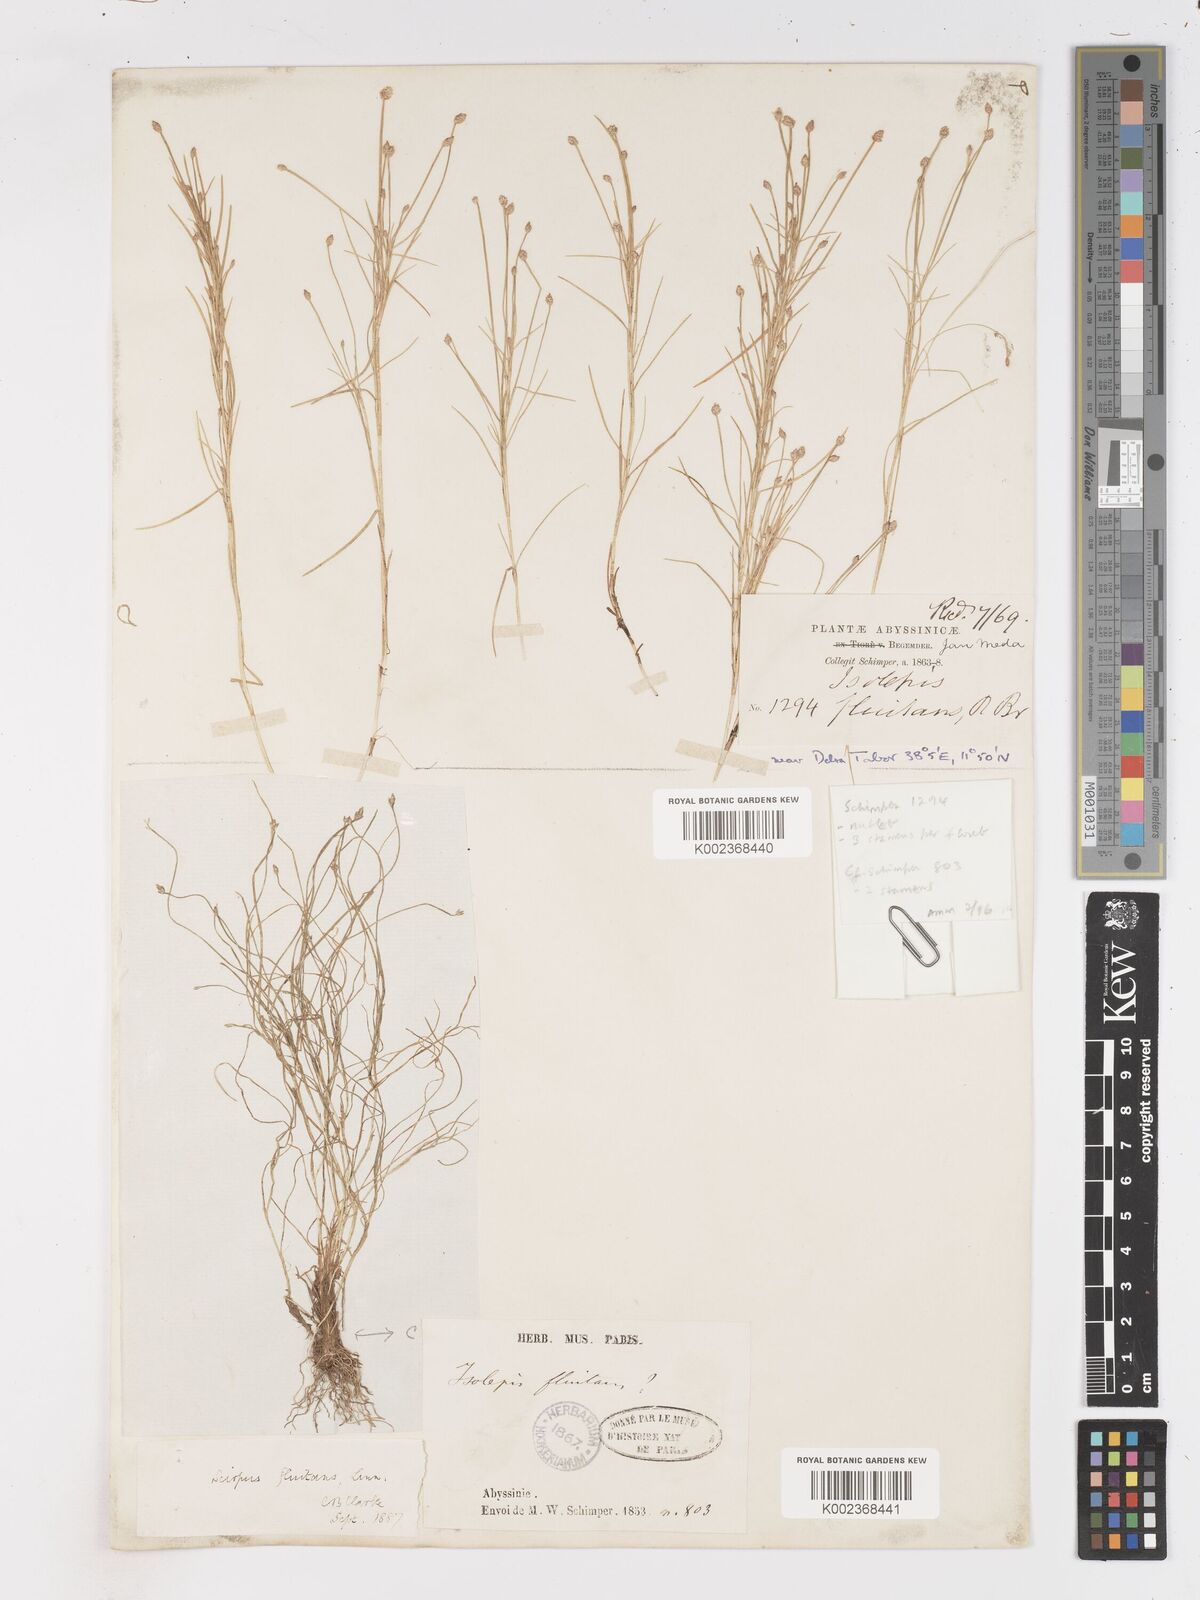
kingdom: Plantae
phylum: Tracheophyta
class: Liliopsida
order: Poales
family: Cyperaceae
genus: Isolepis
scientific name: Isolepis fluitans
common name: Floating club-rush
